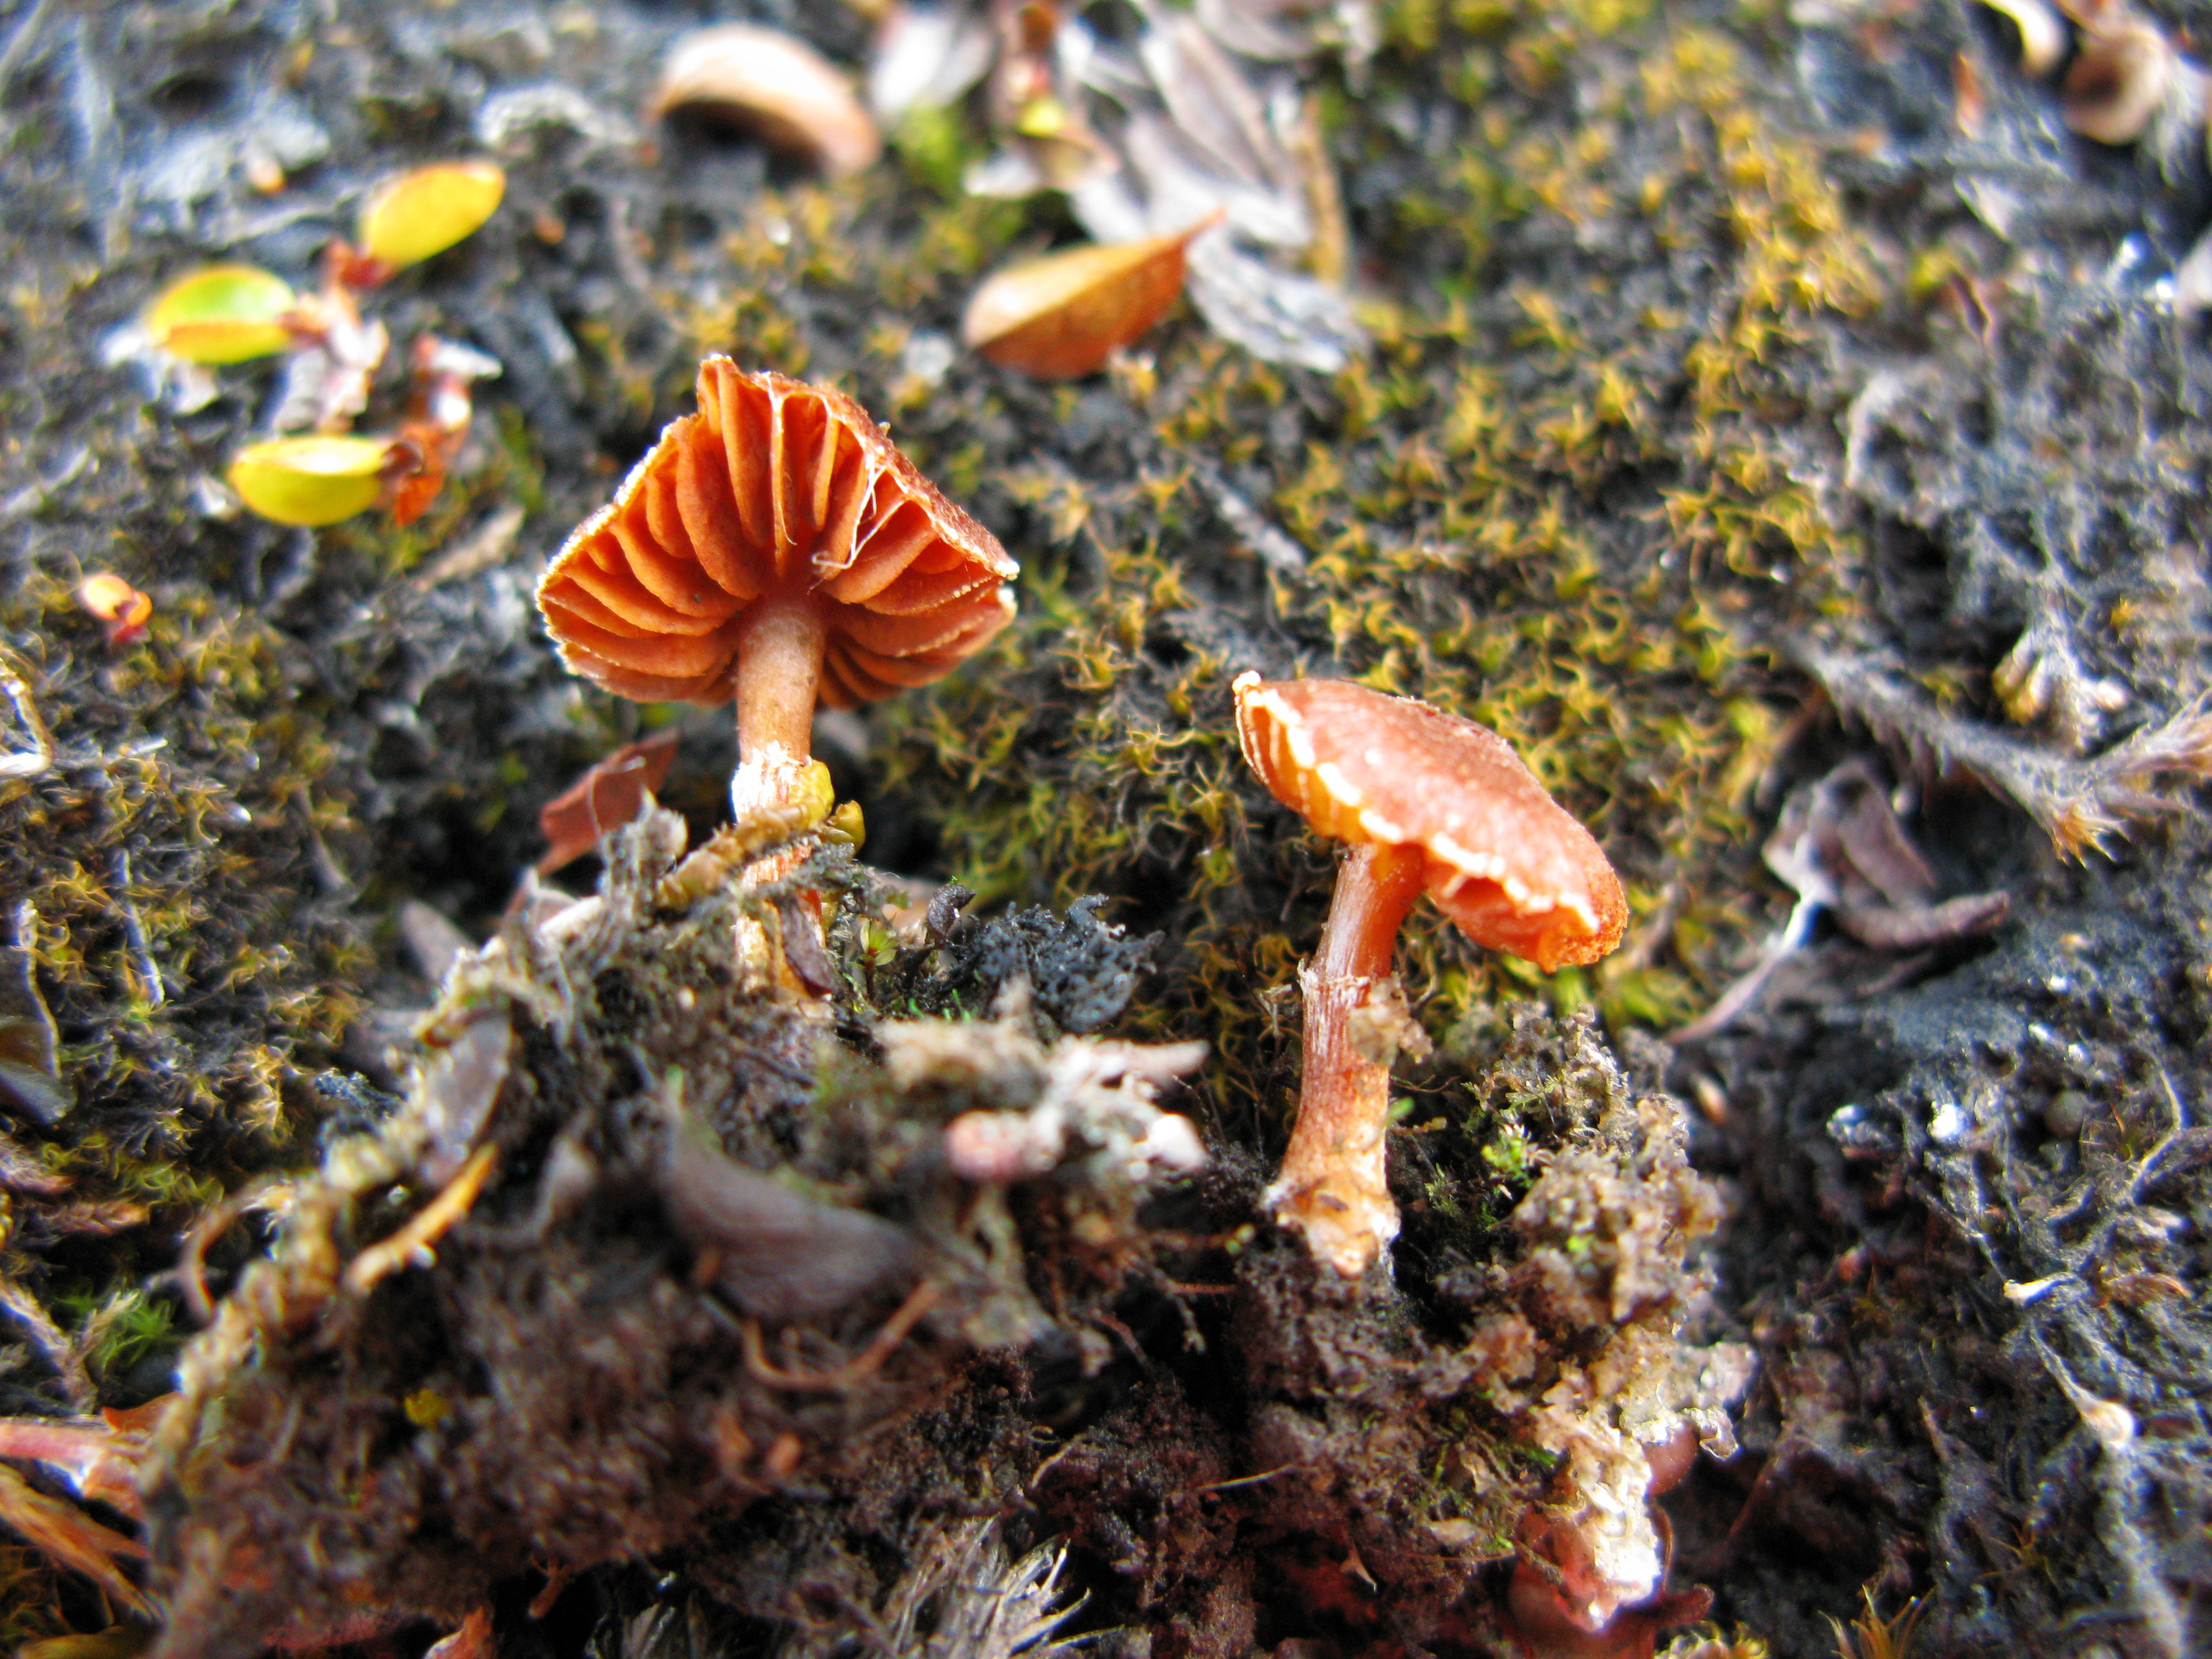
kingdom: Fungi
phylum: Basidiomycota
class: Agaricomycetes
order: Agaricales
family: Cortinariaceae
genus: Cortinarius
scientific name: Cortinarius pseudofallax
